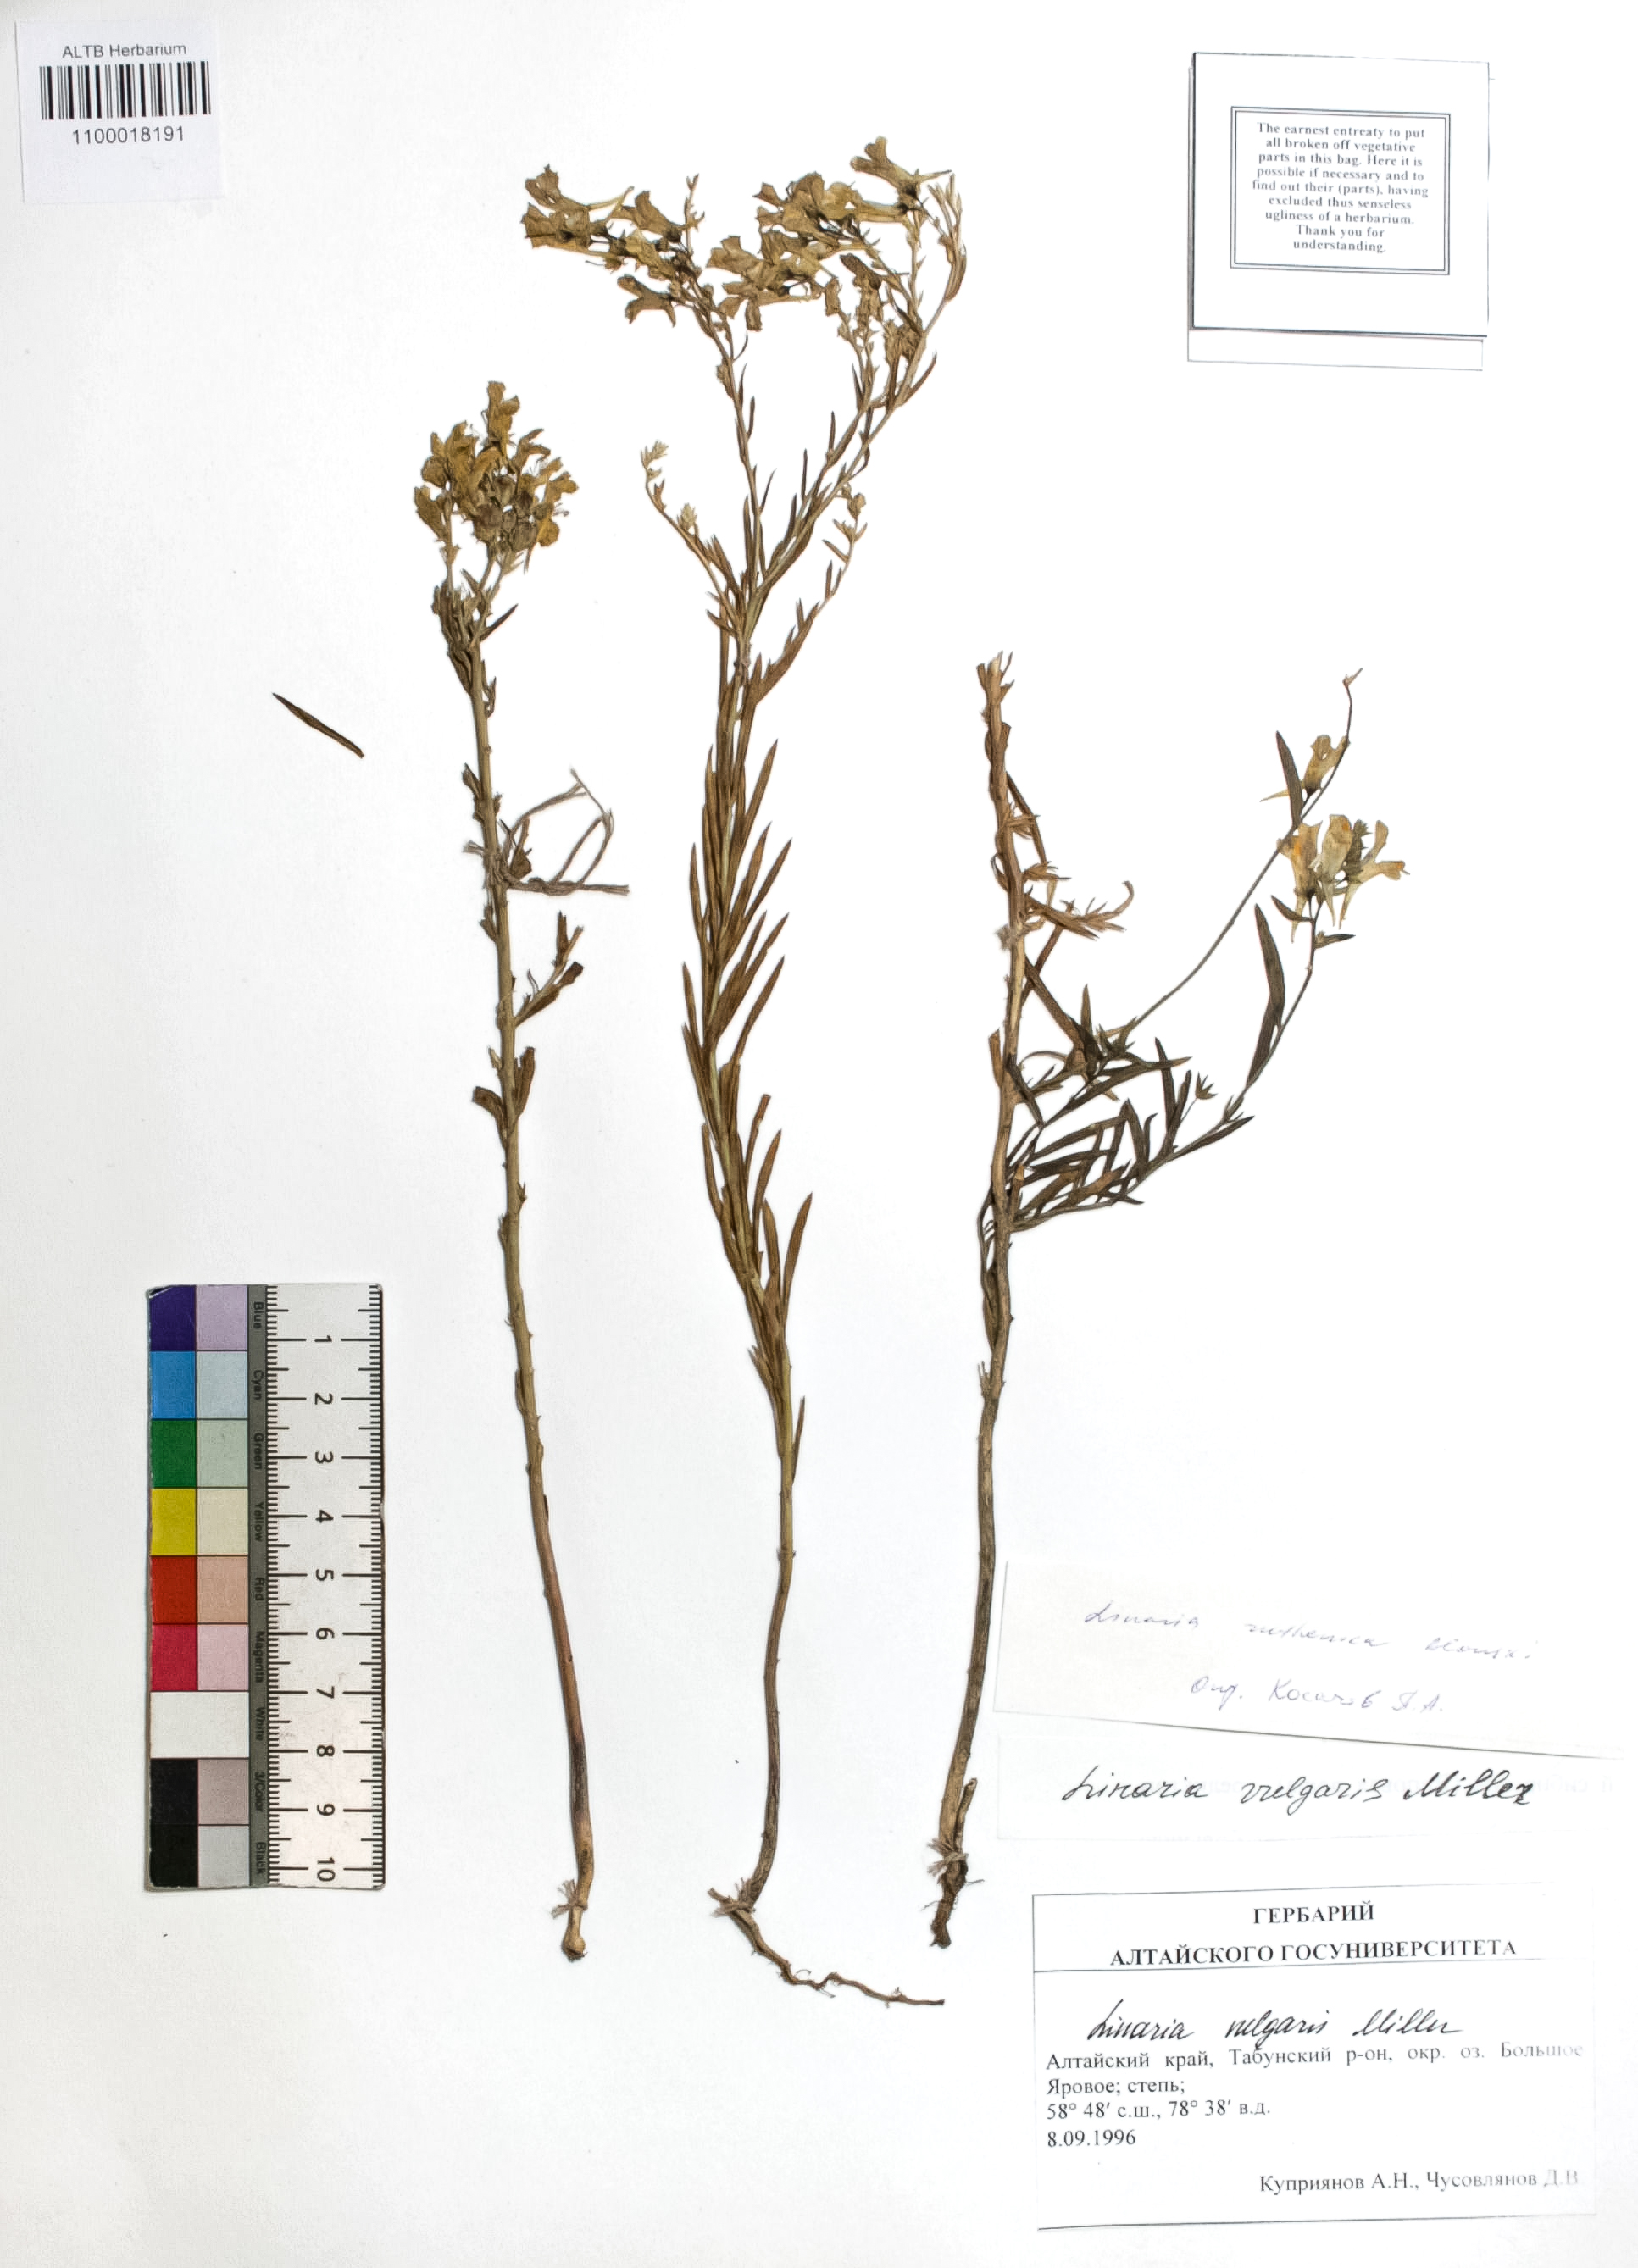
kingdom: Plantae
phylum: Tracheophyta
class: Magnoliopsida
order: Lamiales
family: Plantaginaceae
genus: Linaria
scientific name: Linaria vulgaris
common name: Butter and eggs
